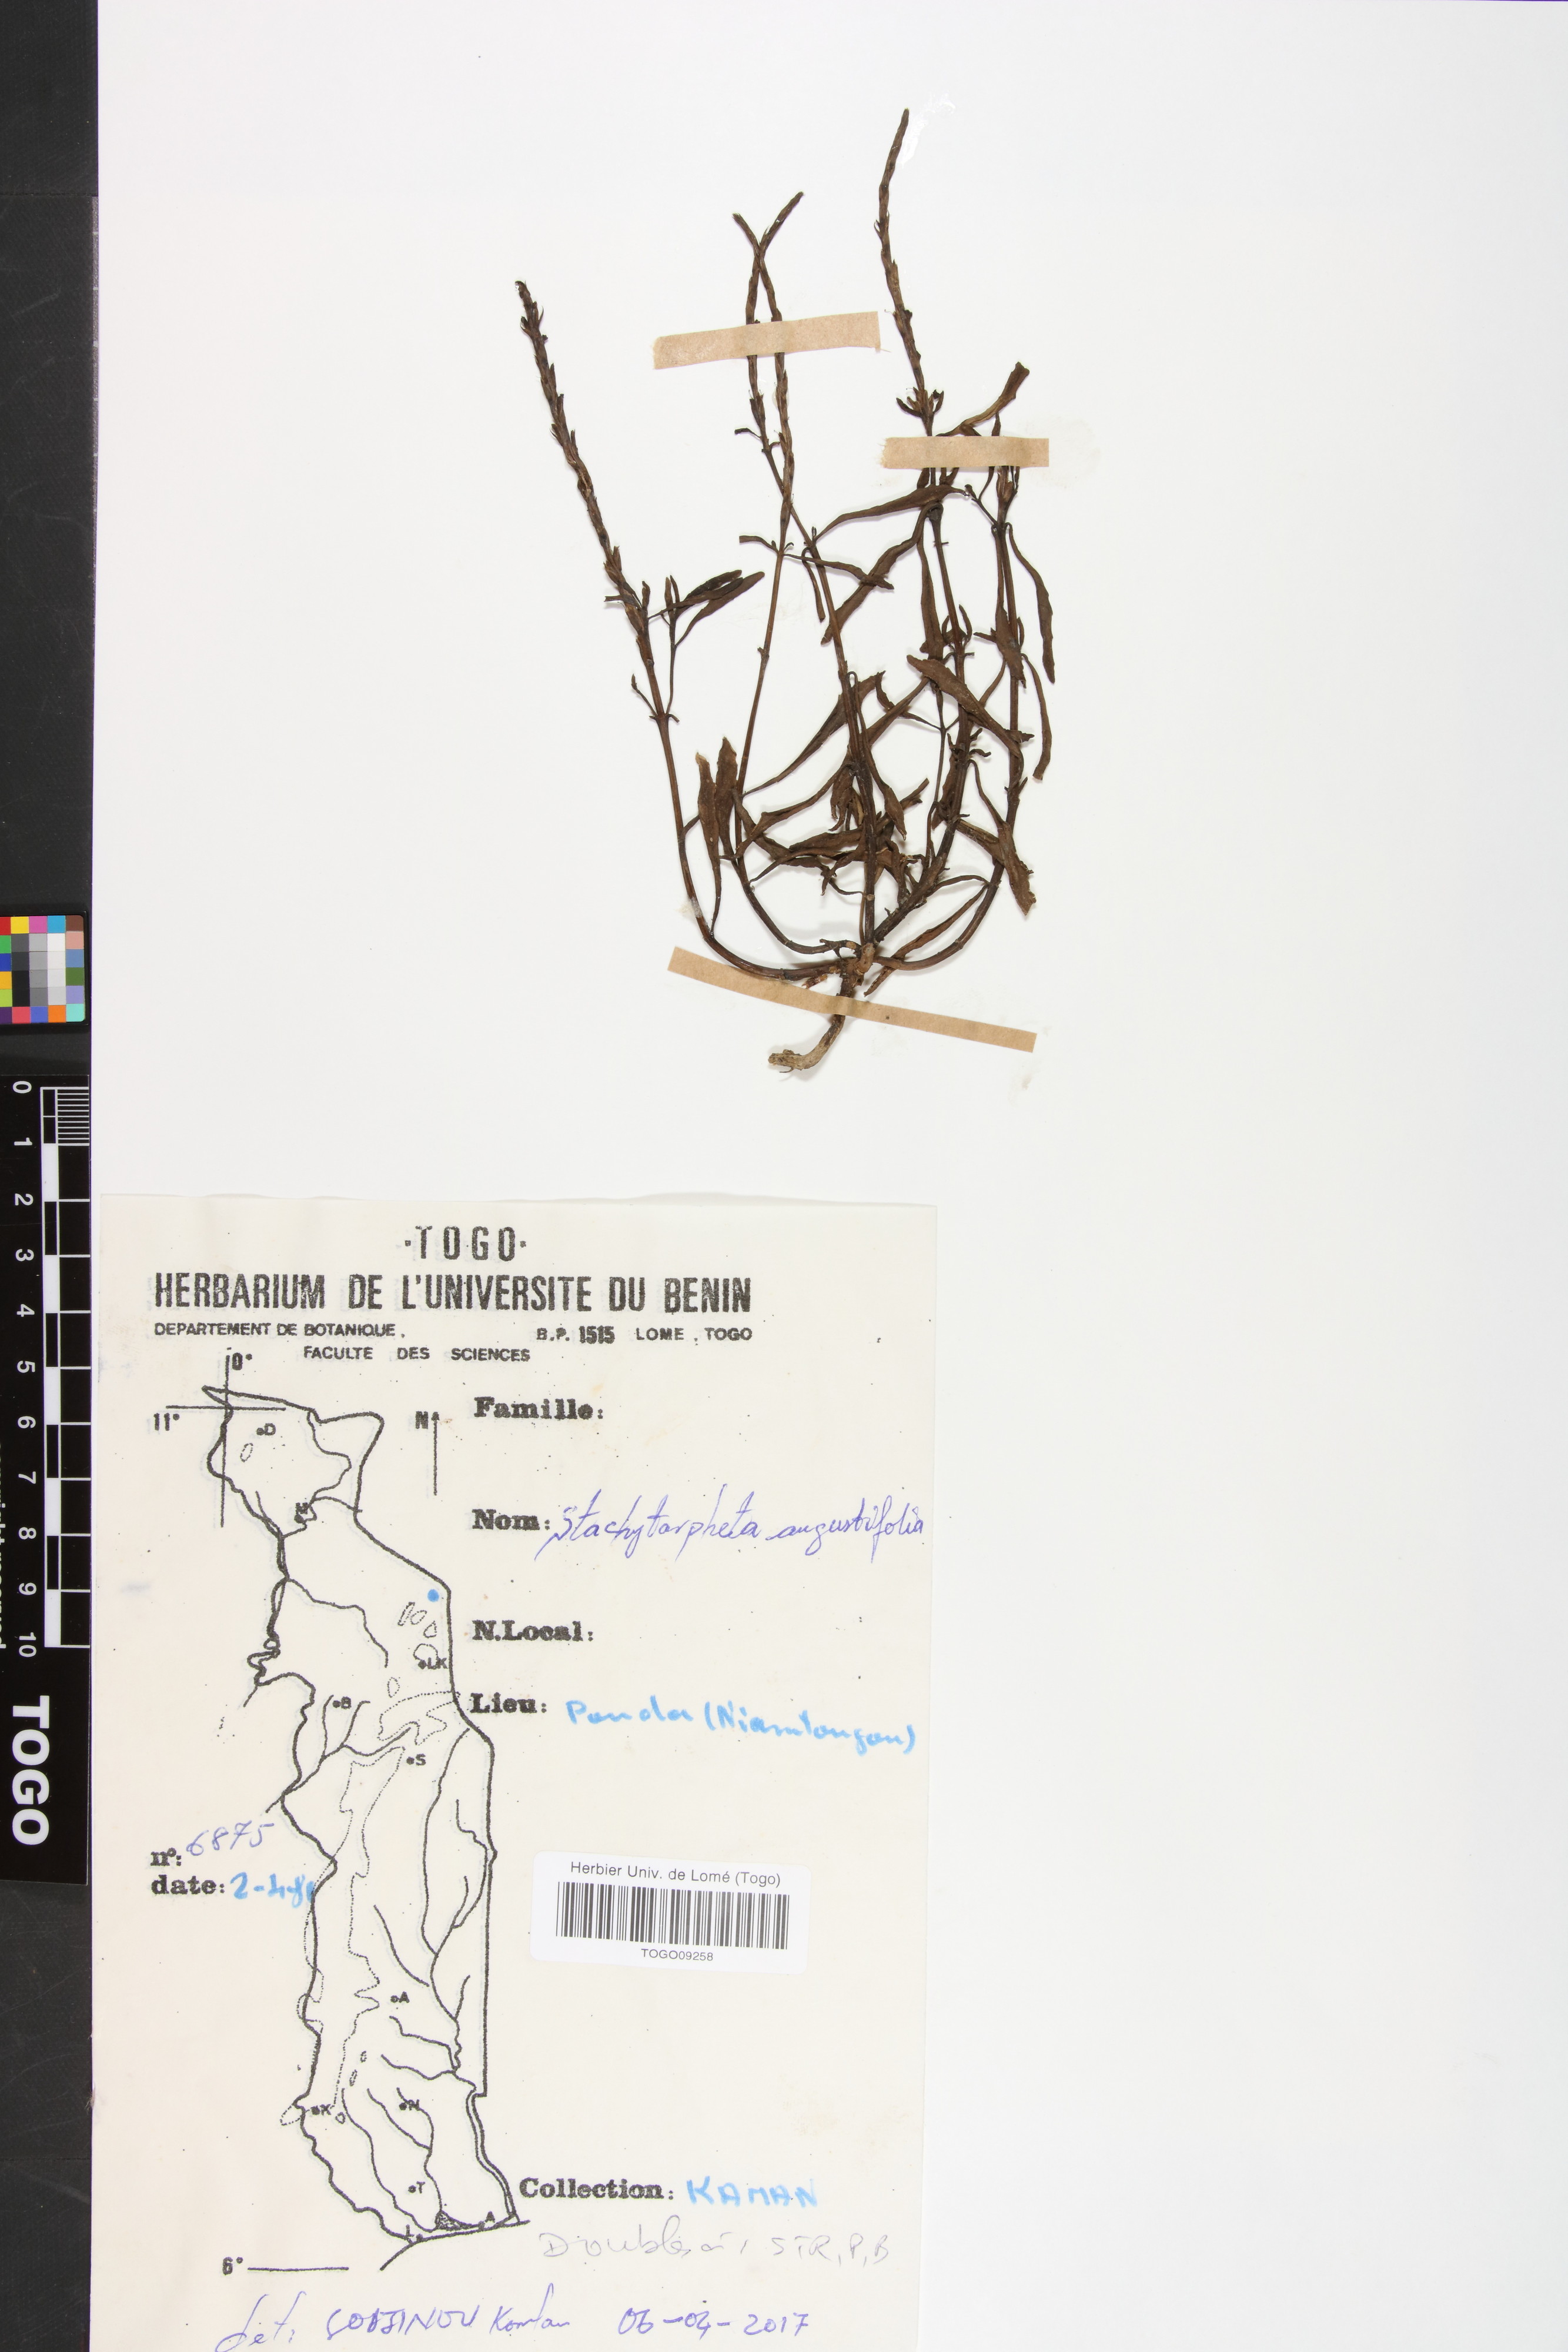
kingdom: Plantae
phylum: Tracheophyta
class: Magnoliopsida
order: Lamiales
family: Verbenaceae
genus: Stachytarpheta
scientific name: Stachytarpheta indica
